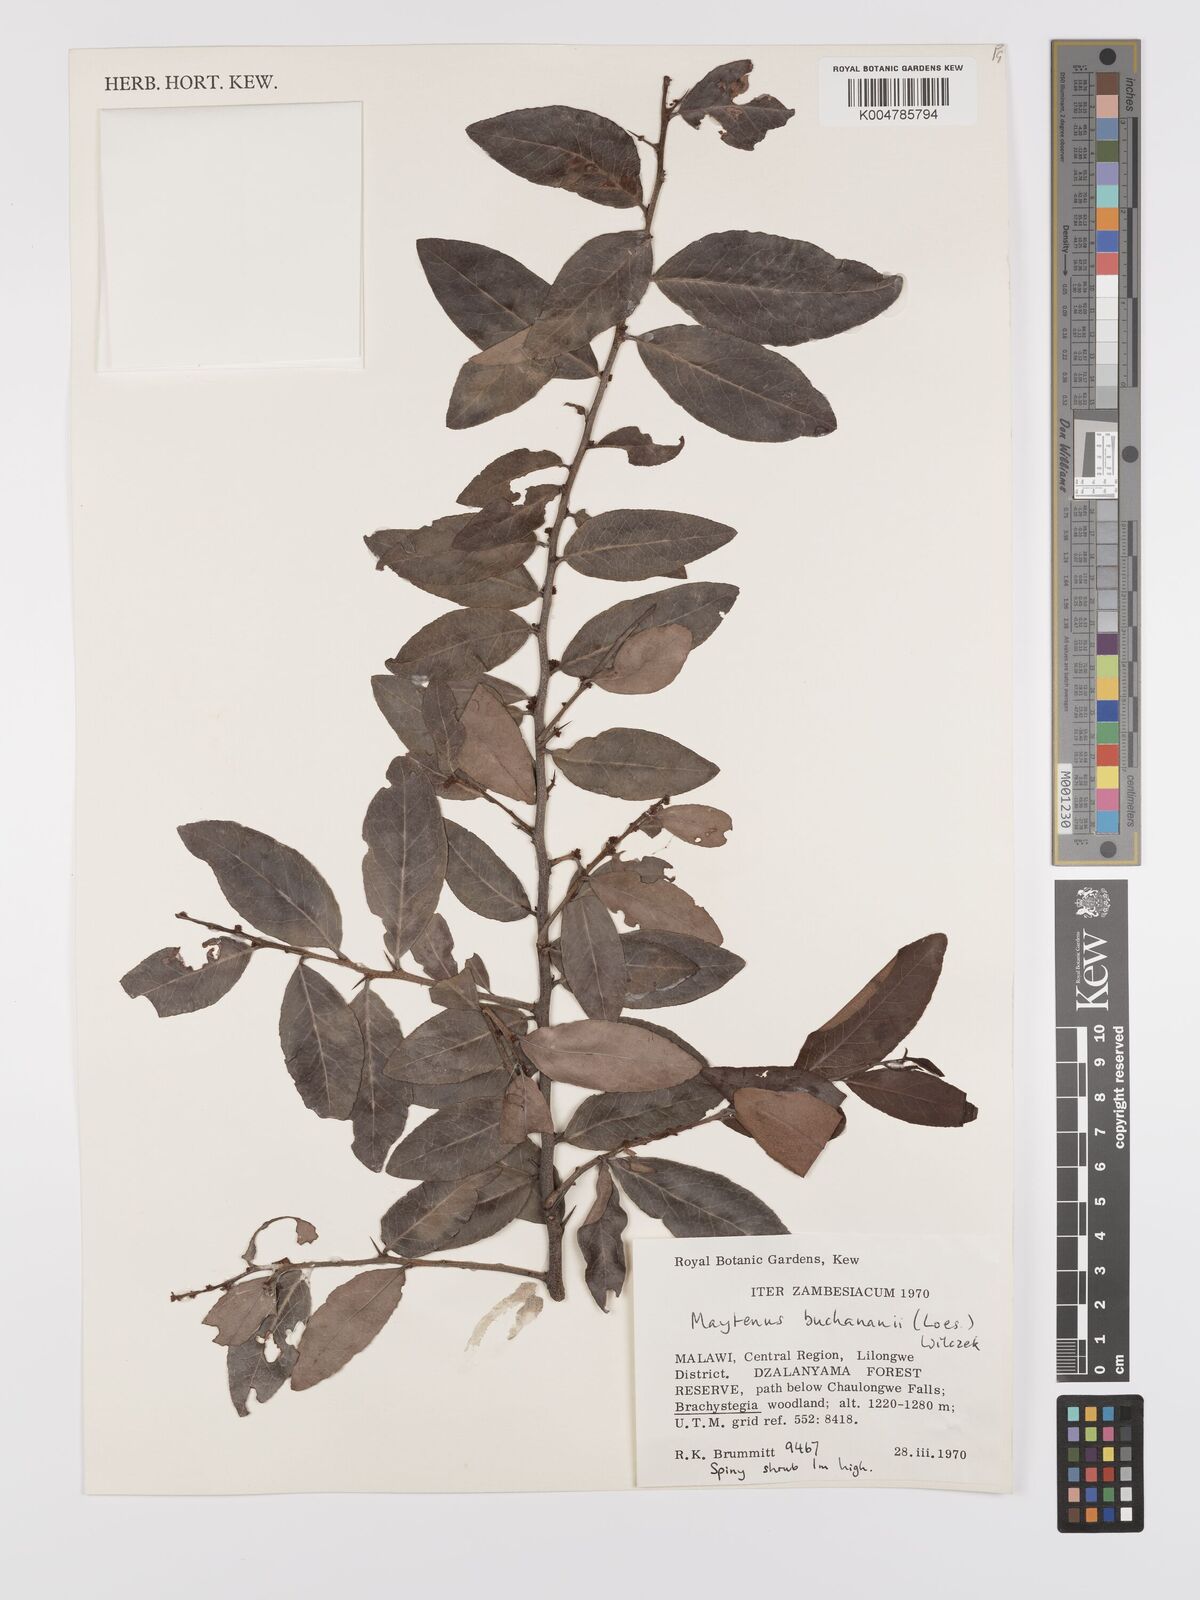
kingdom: Plantae
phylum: Tracheophyta
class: Magnoliopsida
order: Celastrales
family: Celastraceae
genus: Gymnosporia
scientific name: Gymnosporia buchananii
